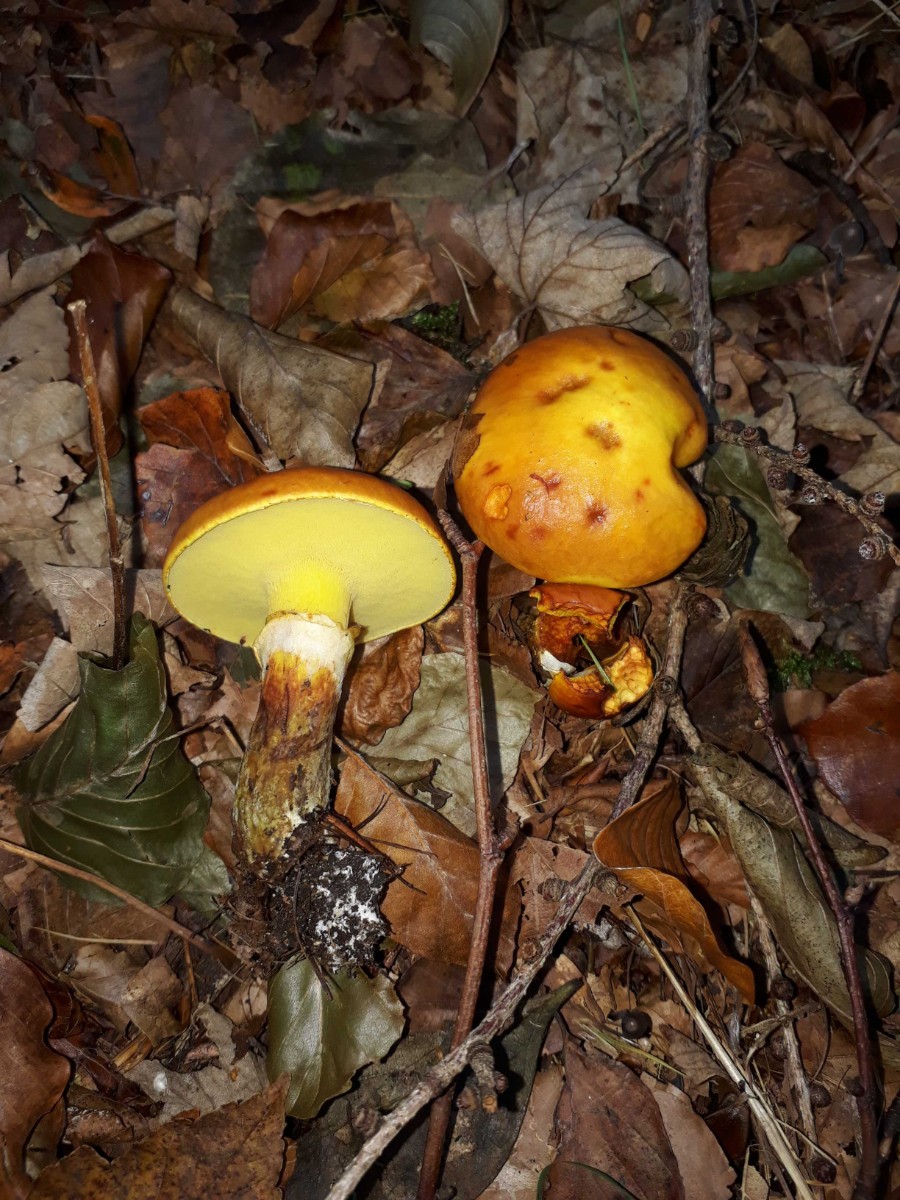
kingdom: Fungi
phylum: Basidiomycota
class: Agaricomycetes
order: Boletales
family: Suillaceae
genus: Suillus
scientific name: Suillus grevillei
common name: lærke-slimrørhat
